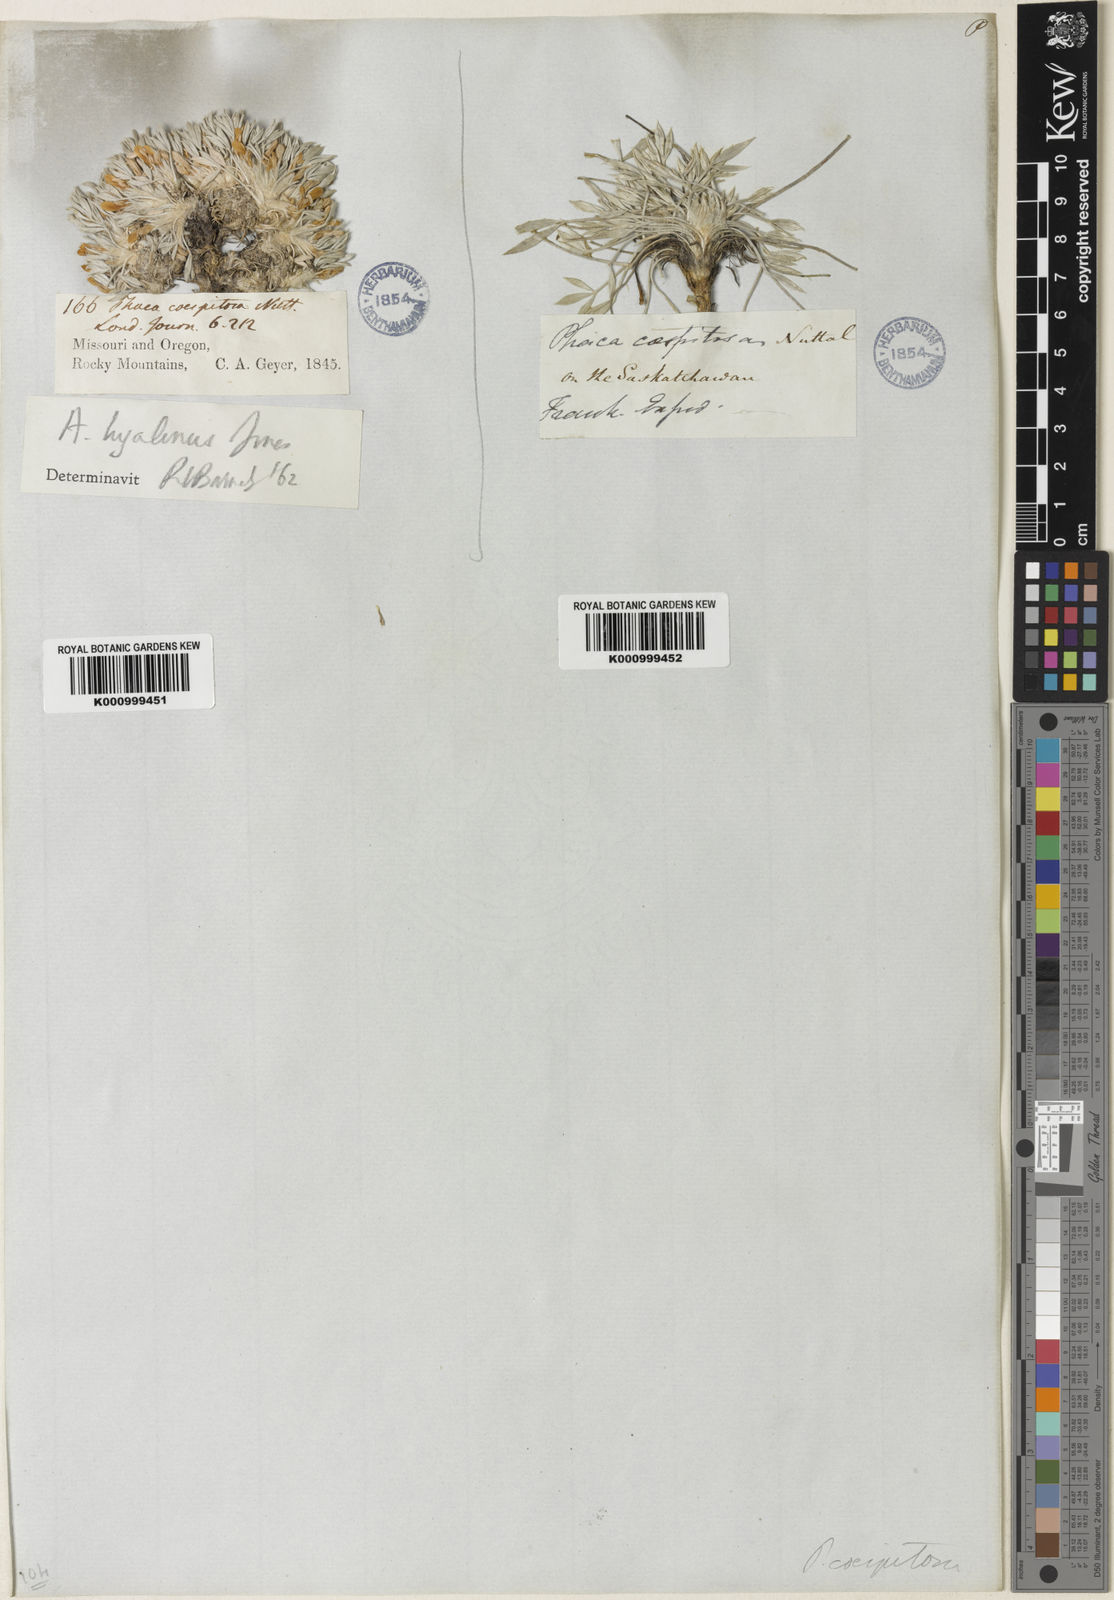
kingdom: Plantae
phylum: Tracheophyta
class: Magnoliopsida
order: Fabales
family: Fabaceae
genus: Oxytropis
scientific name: Oxytropis caespitosa
